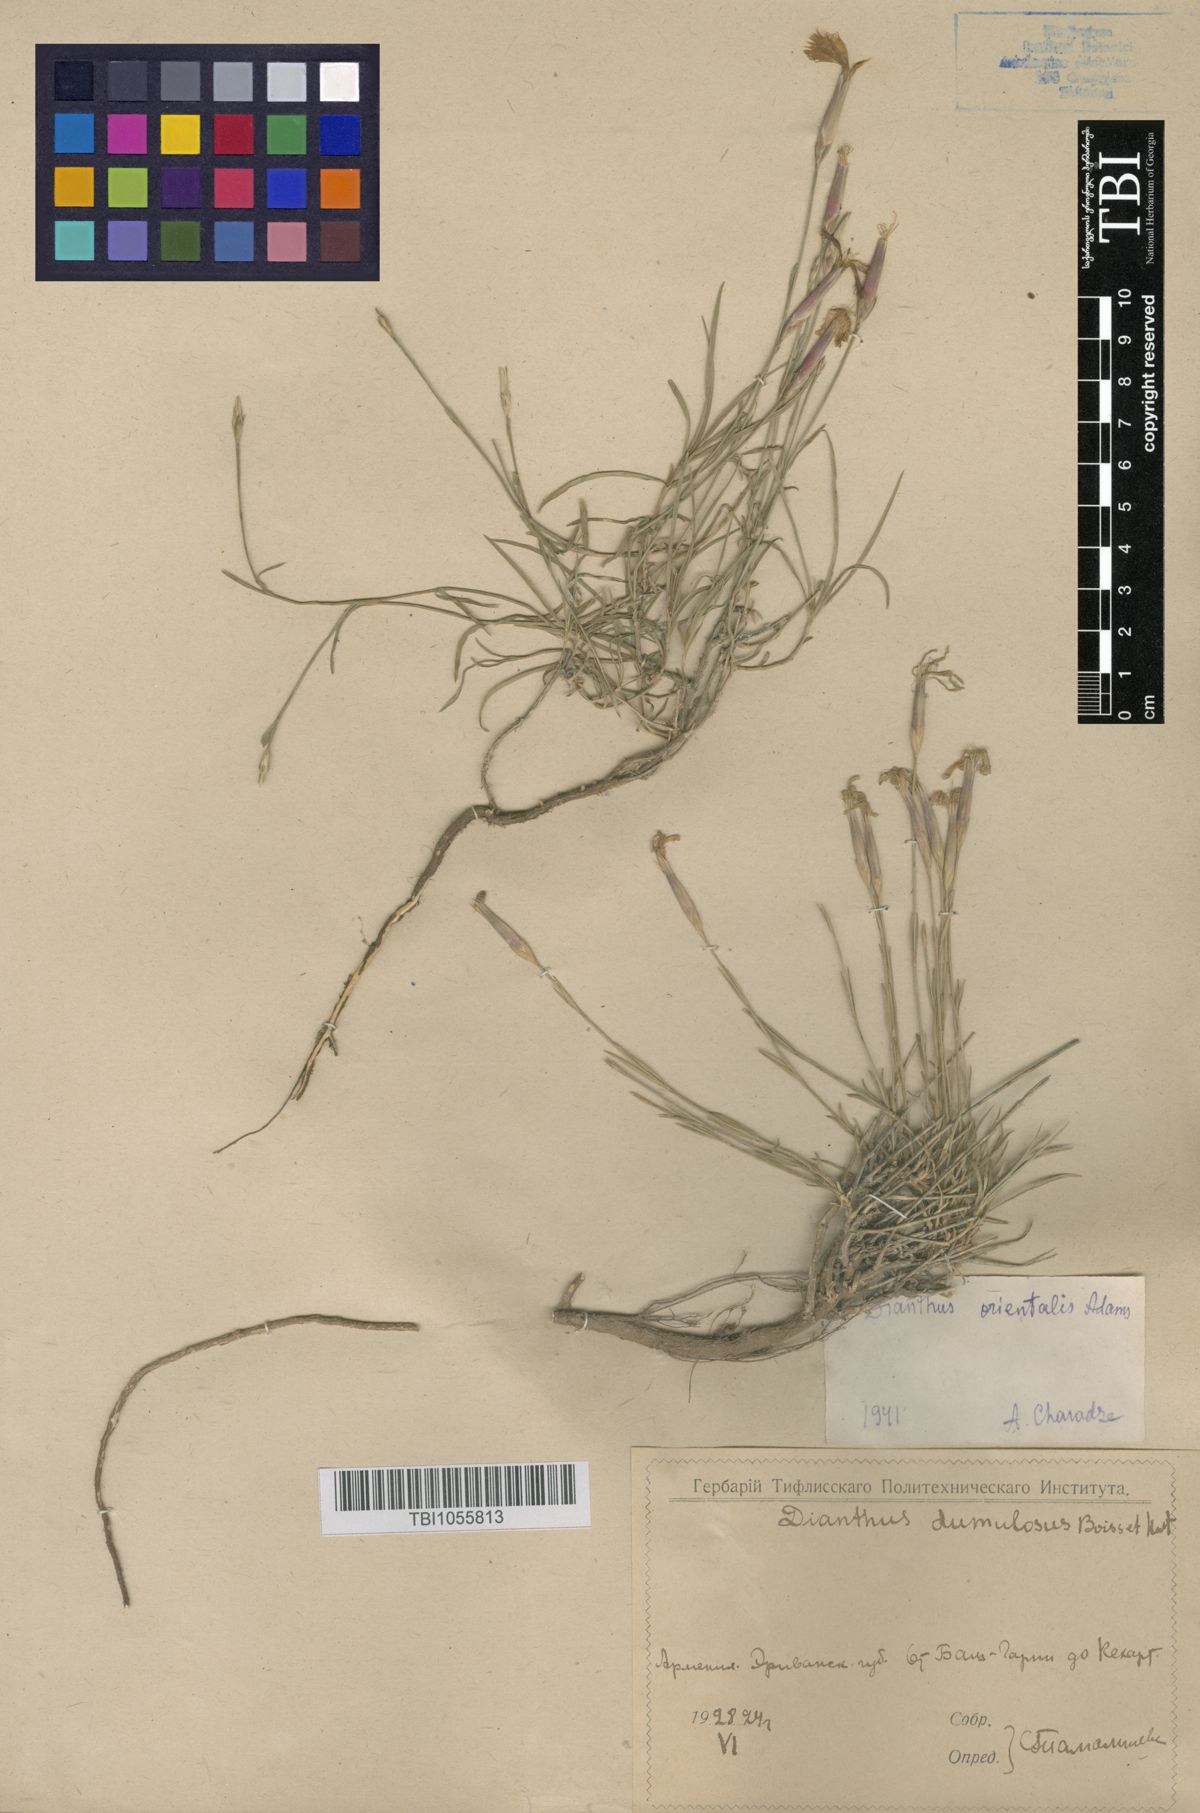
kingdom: Plantae
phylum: Tracheophyta
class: Magnoliopsida
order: Caryophyllales
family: Caryophyllaceae
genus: Dianthus
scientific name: Dianthus orientalis
